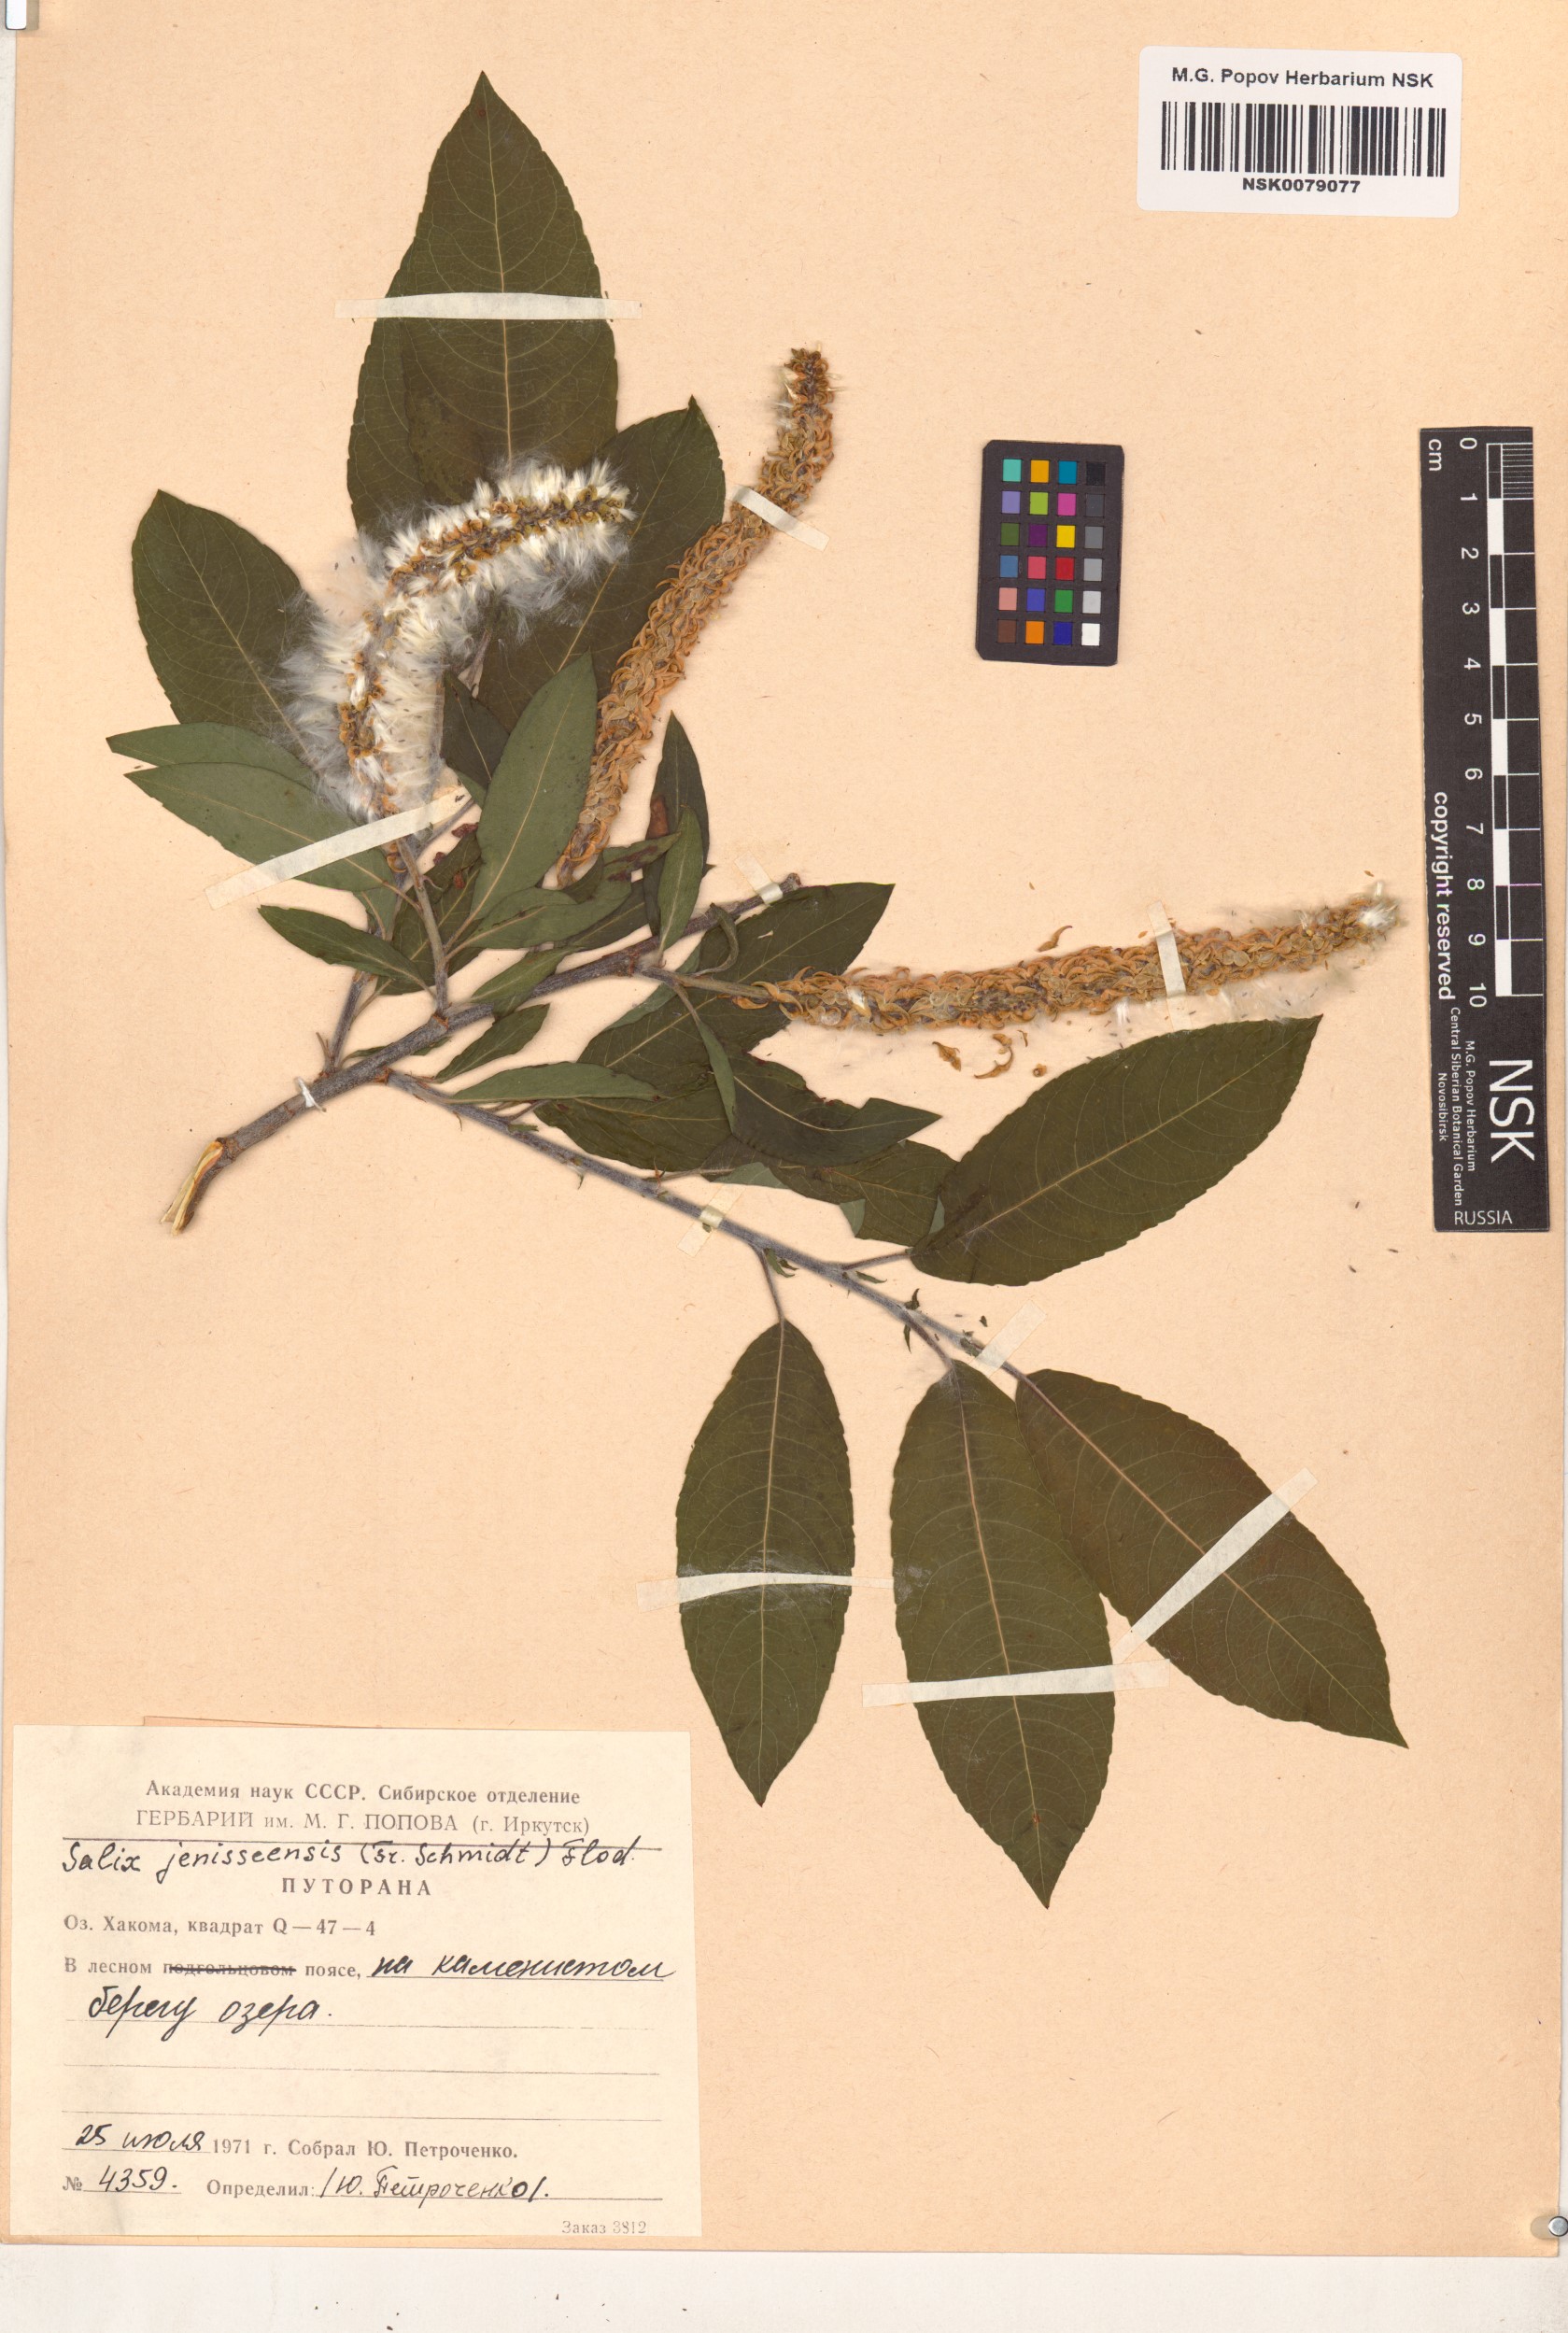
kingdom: Plantae
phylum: Tracheophyta
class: Magnoliopsida
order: Malpighiales
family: Salicaceae
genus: Salix
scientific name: Salix jenisseensis
